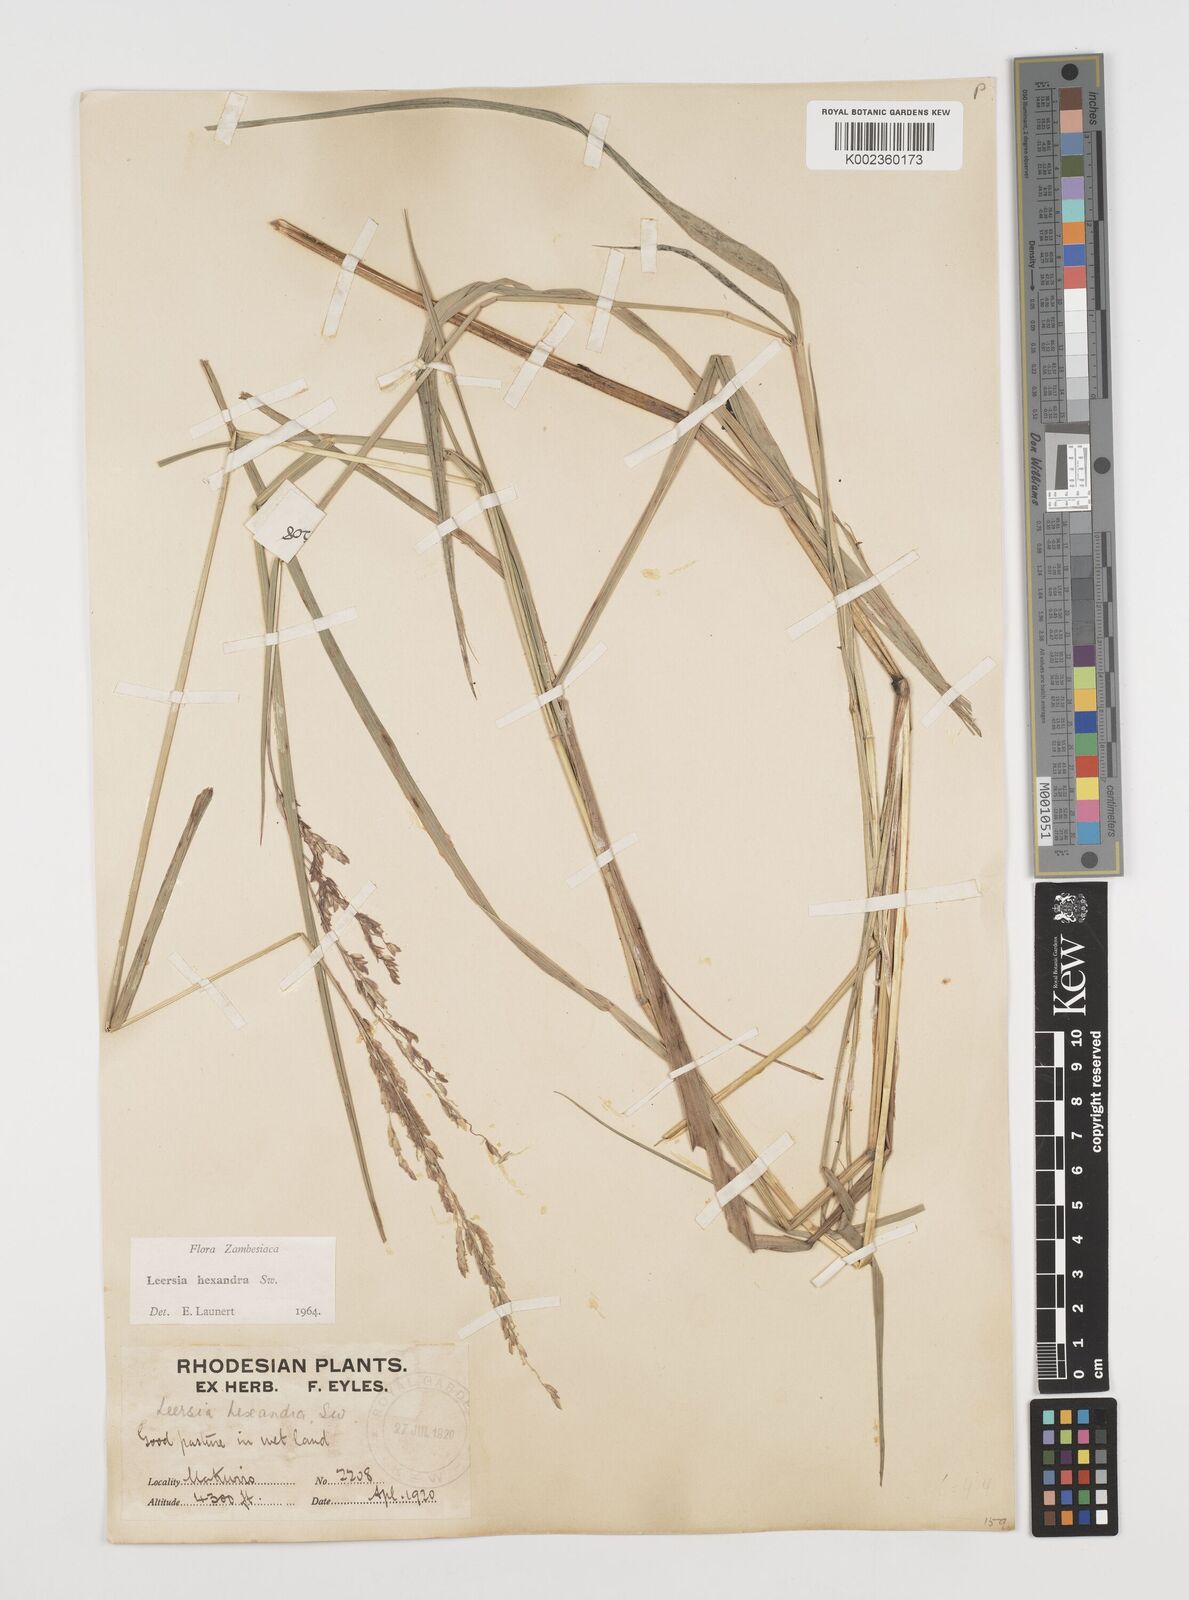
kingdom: Plantae
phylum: Tracheophyta
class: Liliopsida
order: Poales
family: Poaceae
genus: Leersia
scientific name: Leersia hexandra
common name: Southern cut grass
